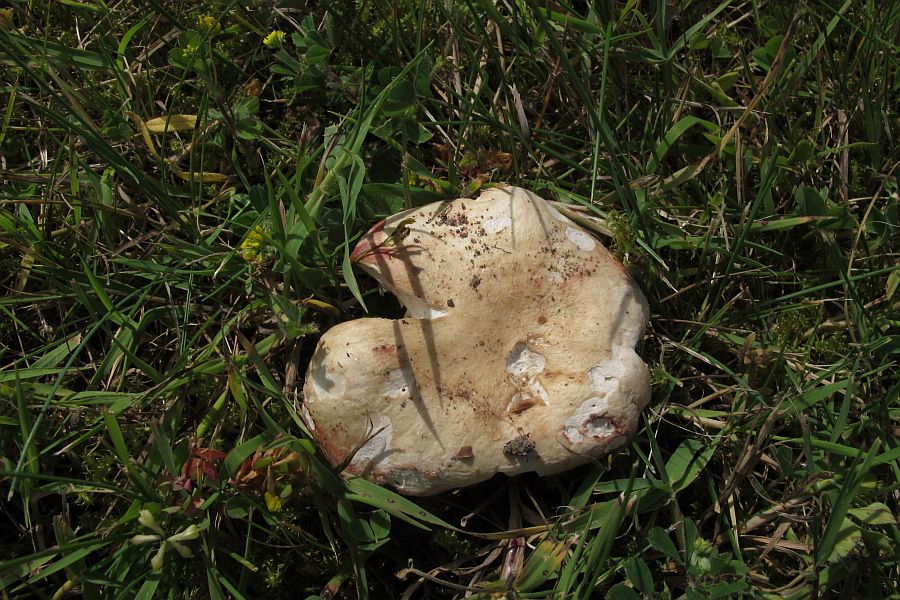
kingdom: Fungi
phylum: Basidiomycota
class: Agaricomycetes
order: Russulales
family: Russulaceae
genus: Russula
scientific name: Russula depallens
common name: falmende skørhat
